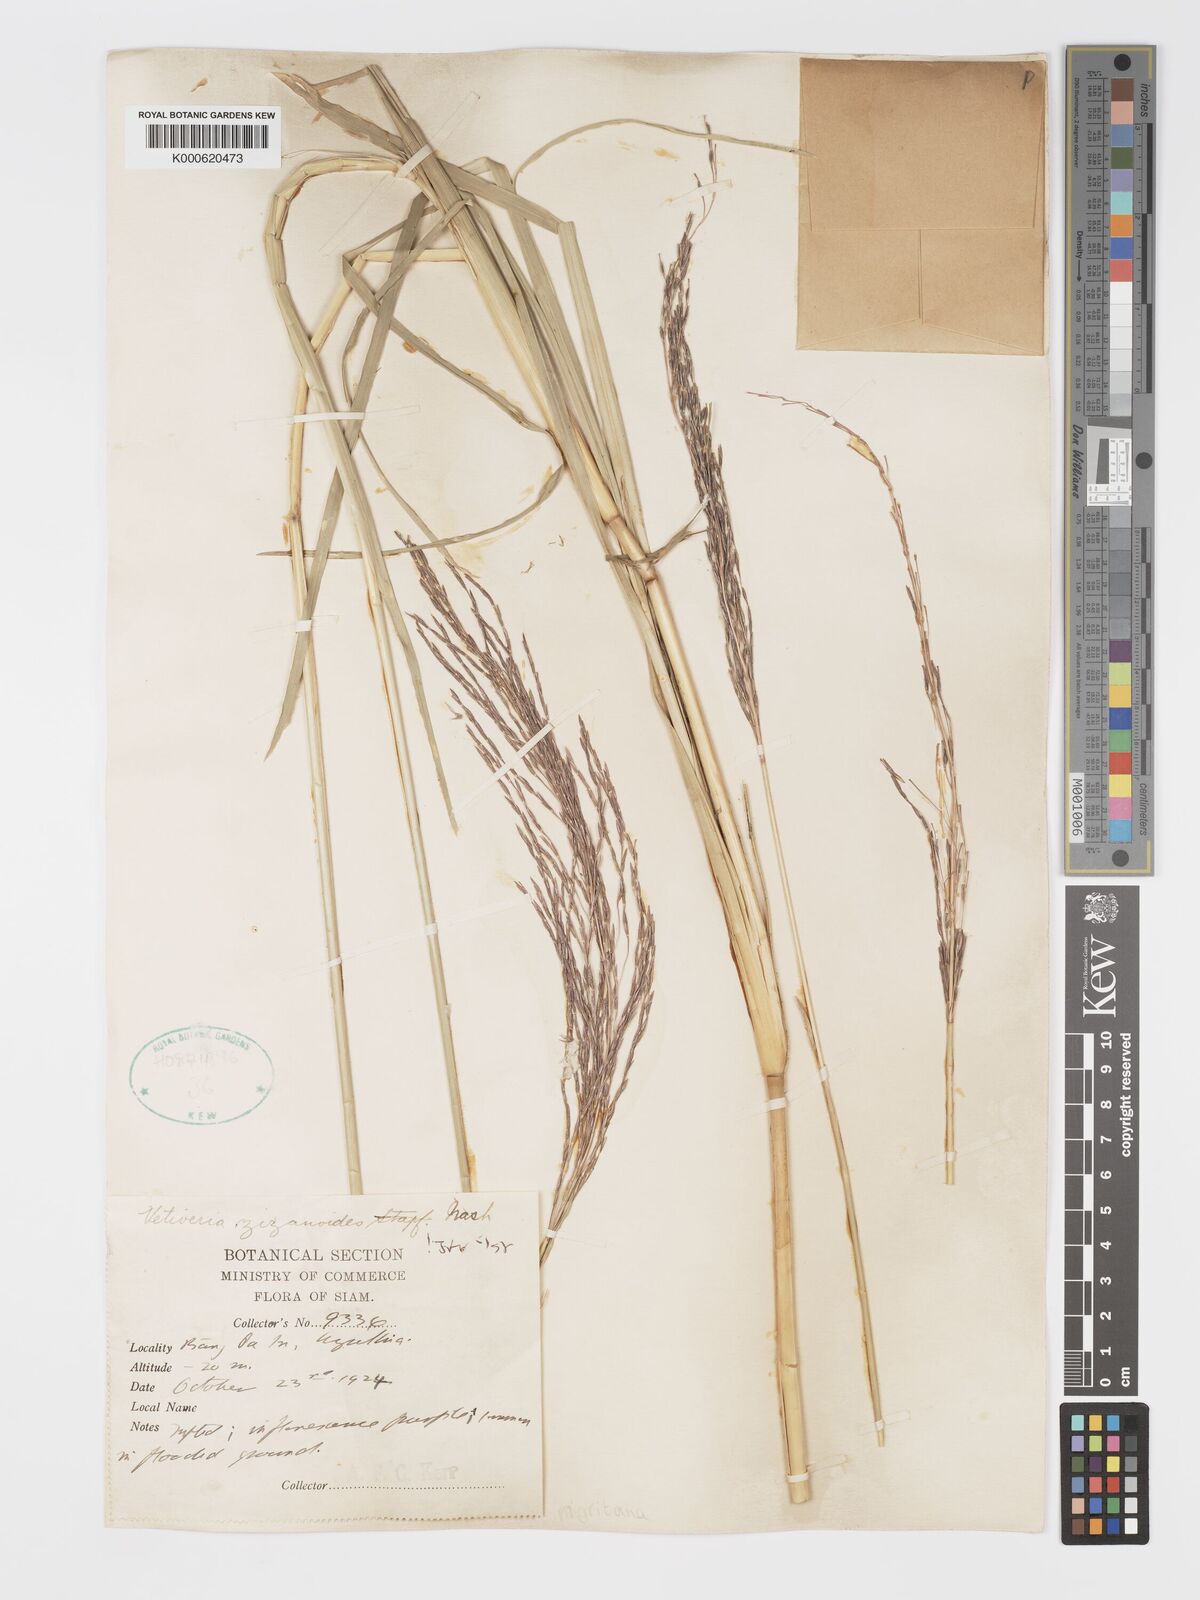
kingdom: Plantae
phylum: Tracheophyta
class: Liliopsida
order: Poales
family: Poaceae
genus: Chrysopogon
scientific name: Chrysopogon zizanioides
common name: False beardgrass
